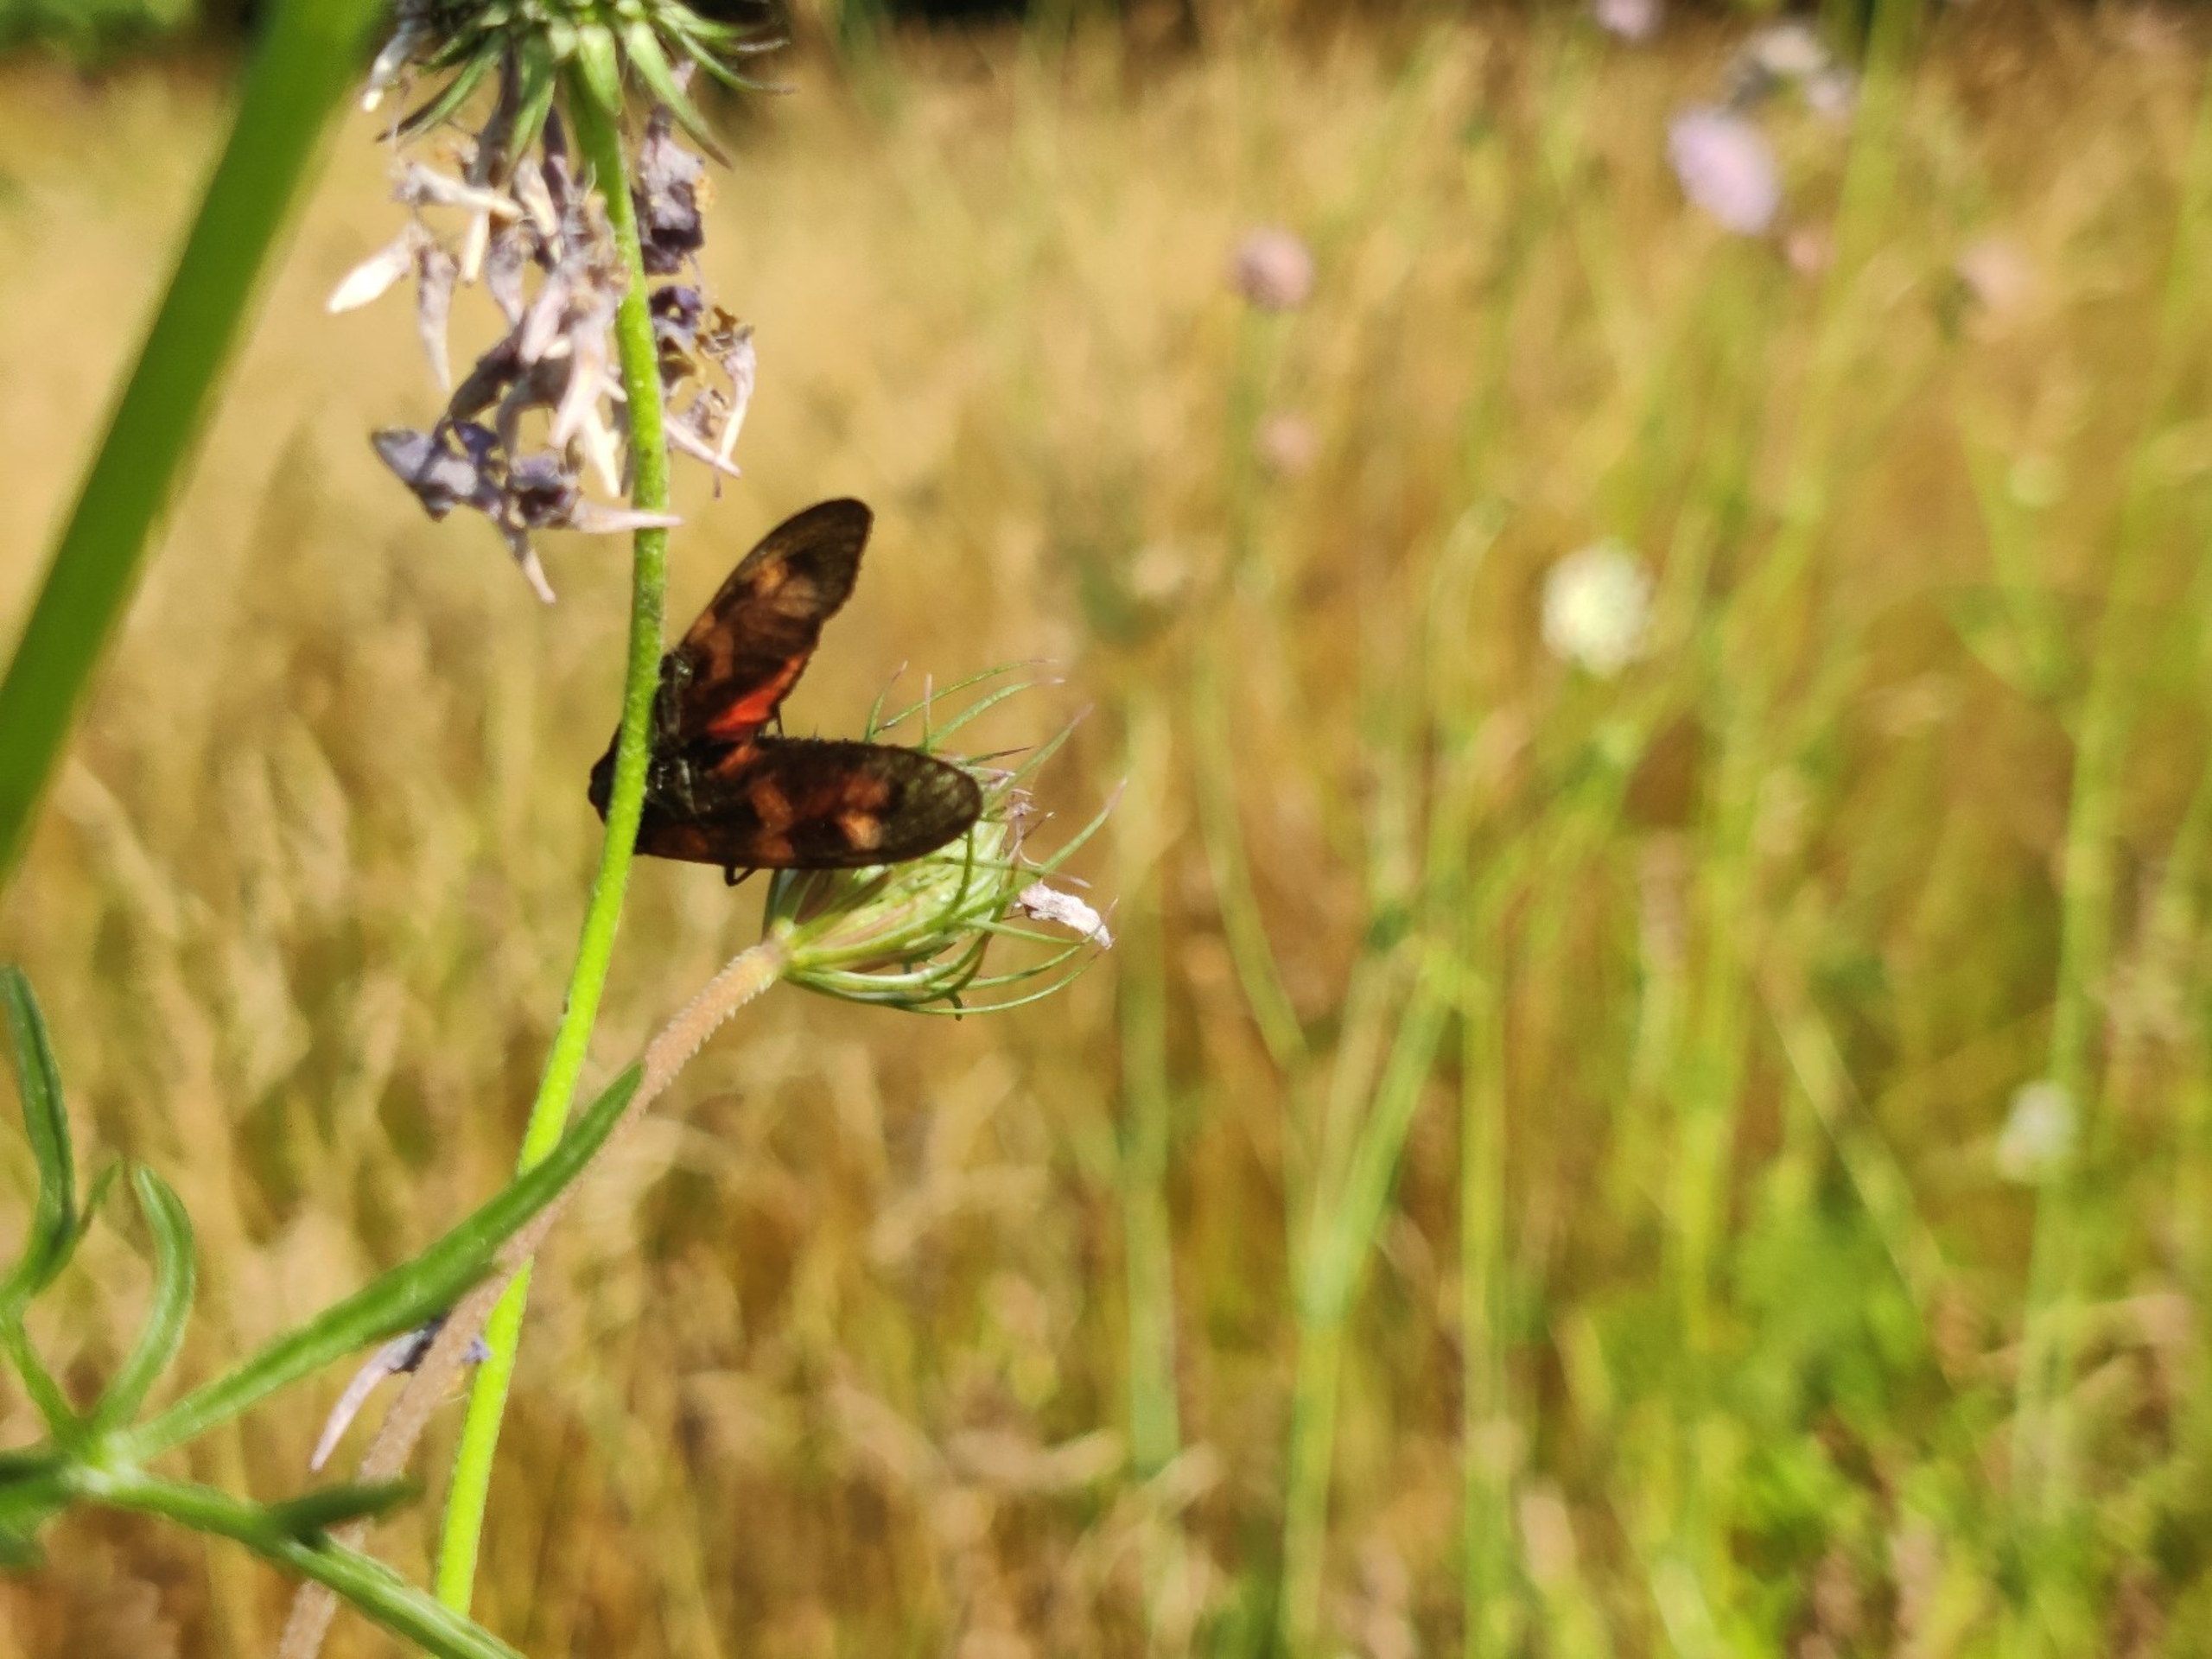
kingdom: Animalia
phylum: Arthropoda
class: Insecta
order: Lepidoptera
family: Zygaenidae
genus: Zygaena
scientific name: Zygaena filipendulae
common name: Seksplettet køllesværmer
